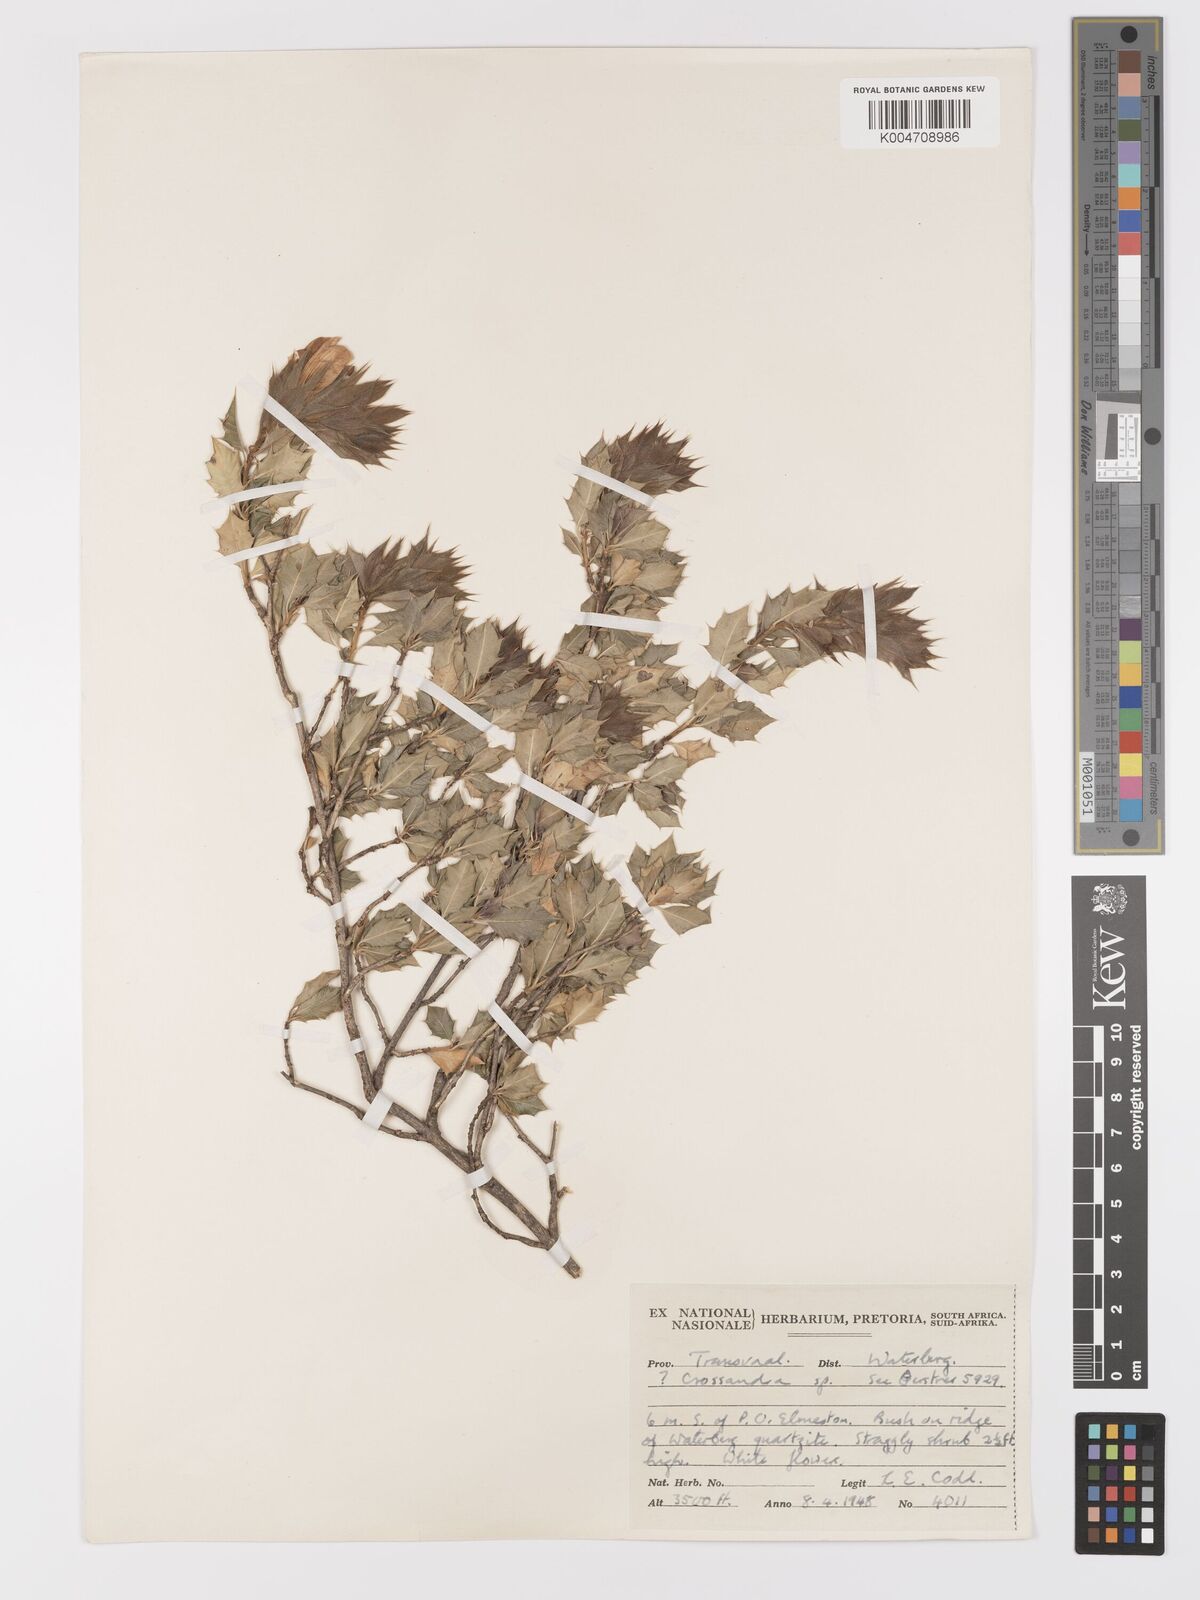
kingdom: Plantae
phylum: Tracheophyta
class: Magnoliopsida
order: Lamiales
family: Acanthaceae
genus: Sclerochiton
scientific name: Sclerochiton ilicifolius
